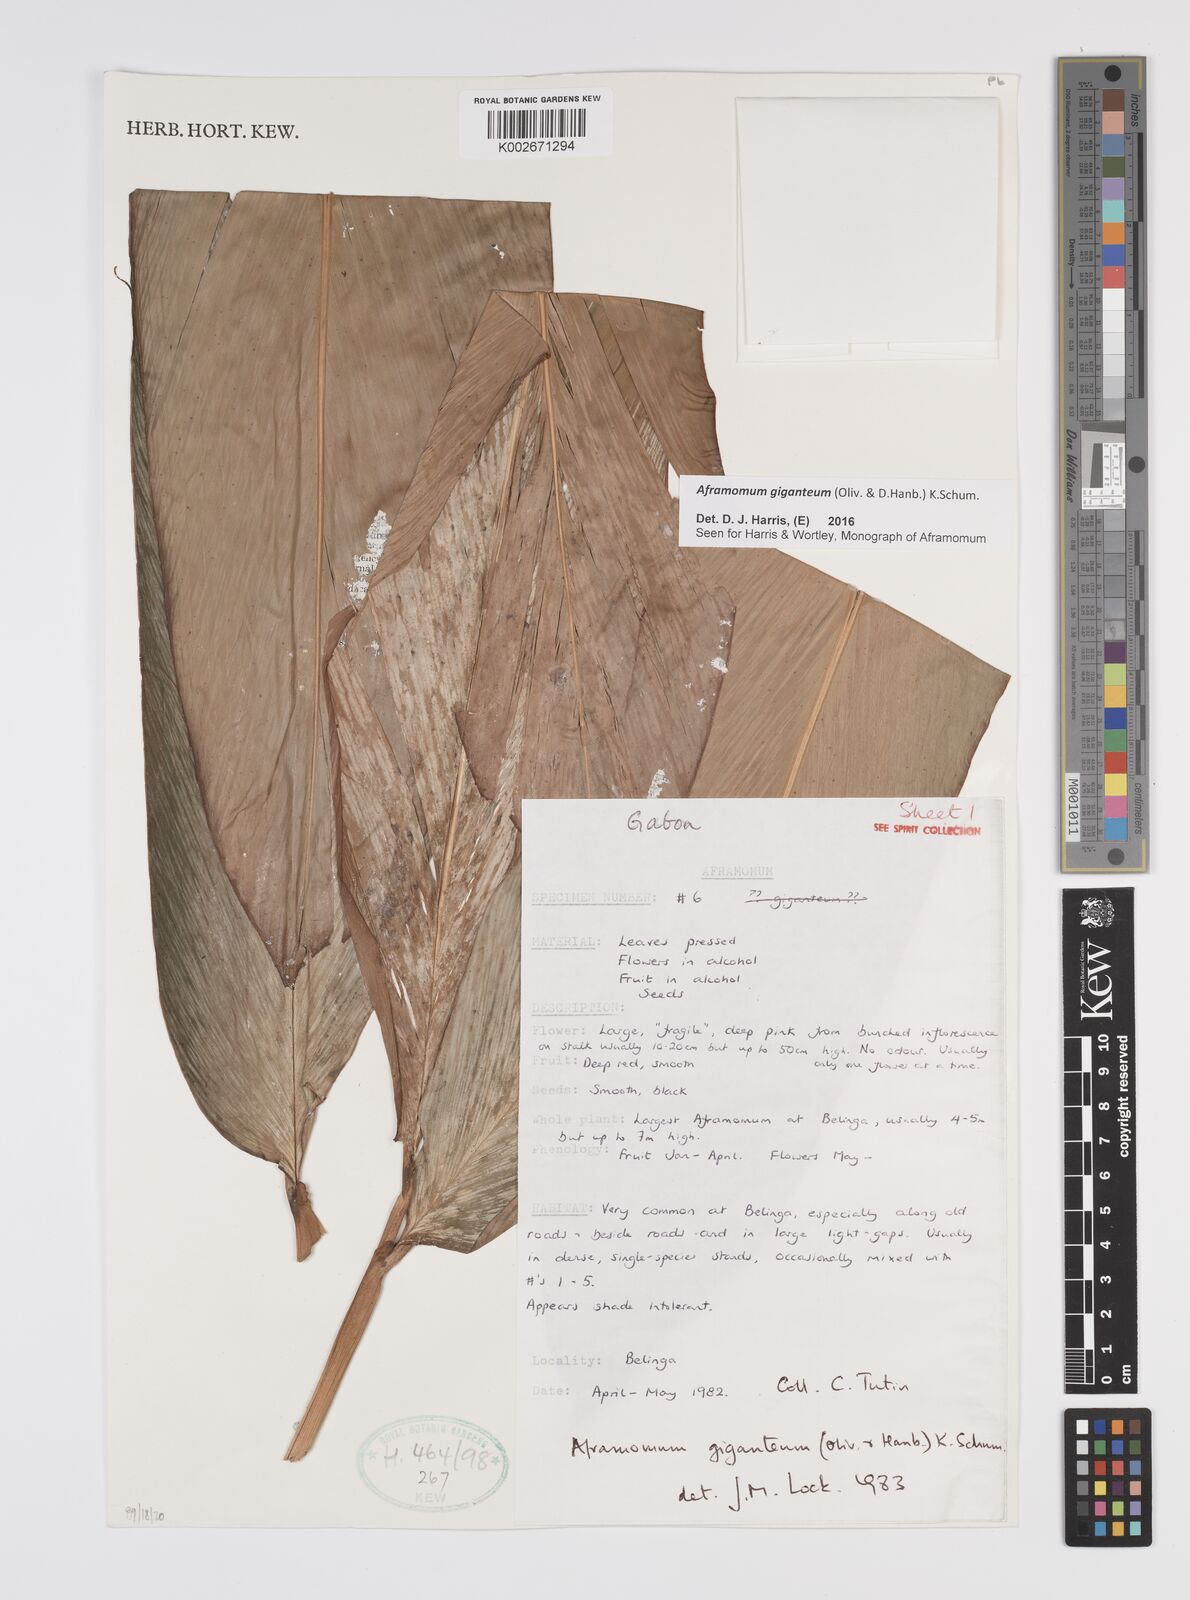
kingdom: Plantae
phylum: Tracheophyta
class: Liliopsida
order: Zingiberales
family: Zingiberaceae
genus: Aframomum
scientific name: Aframomum giganteum
